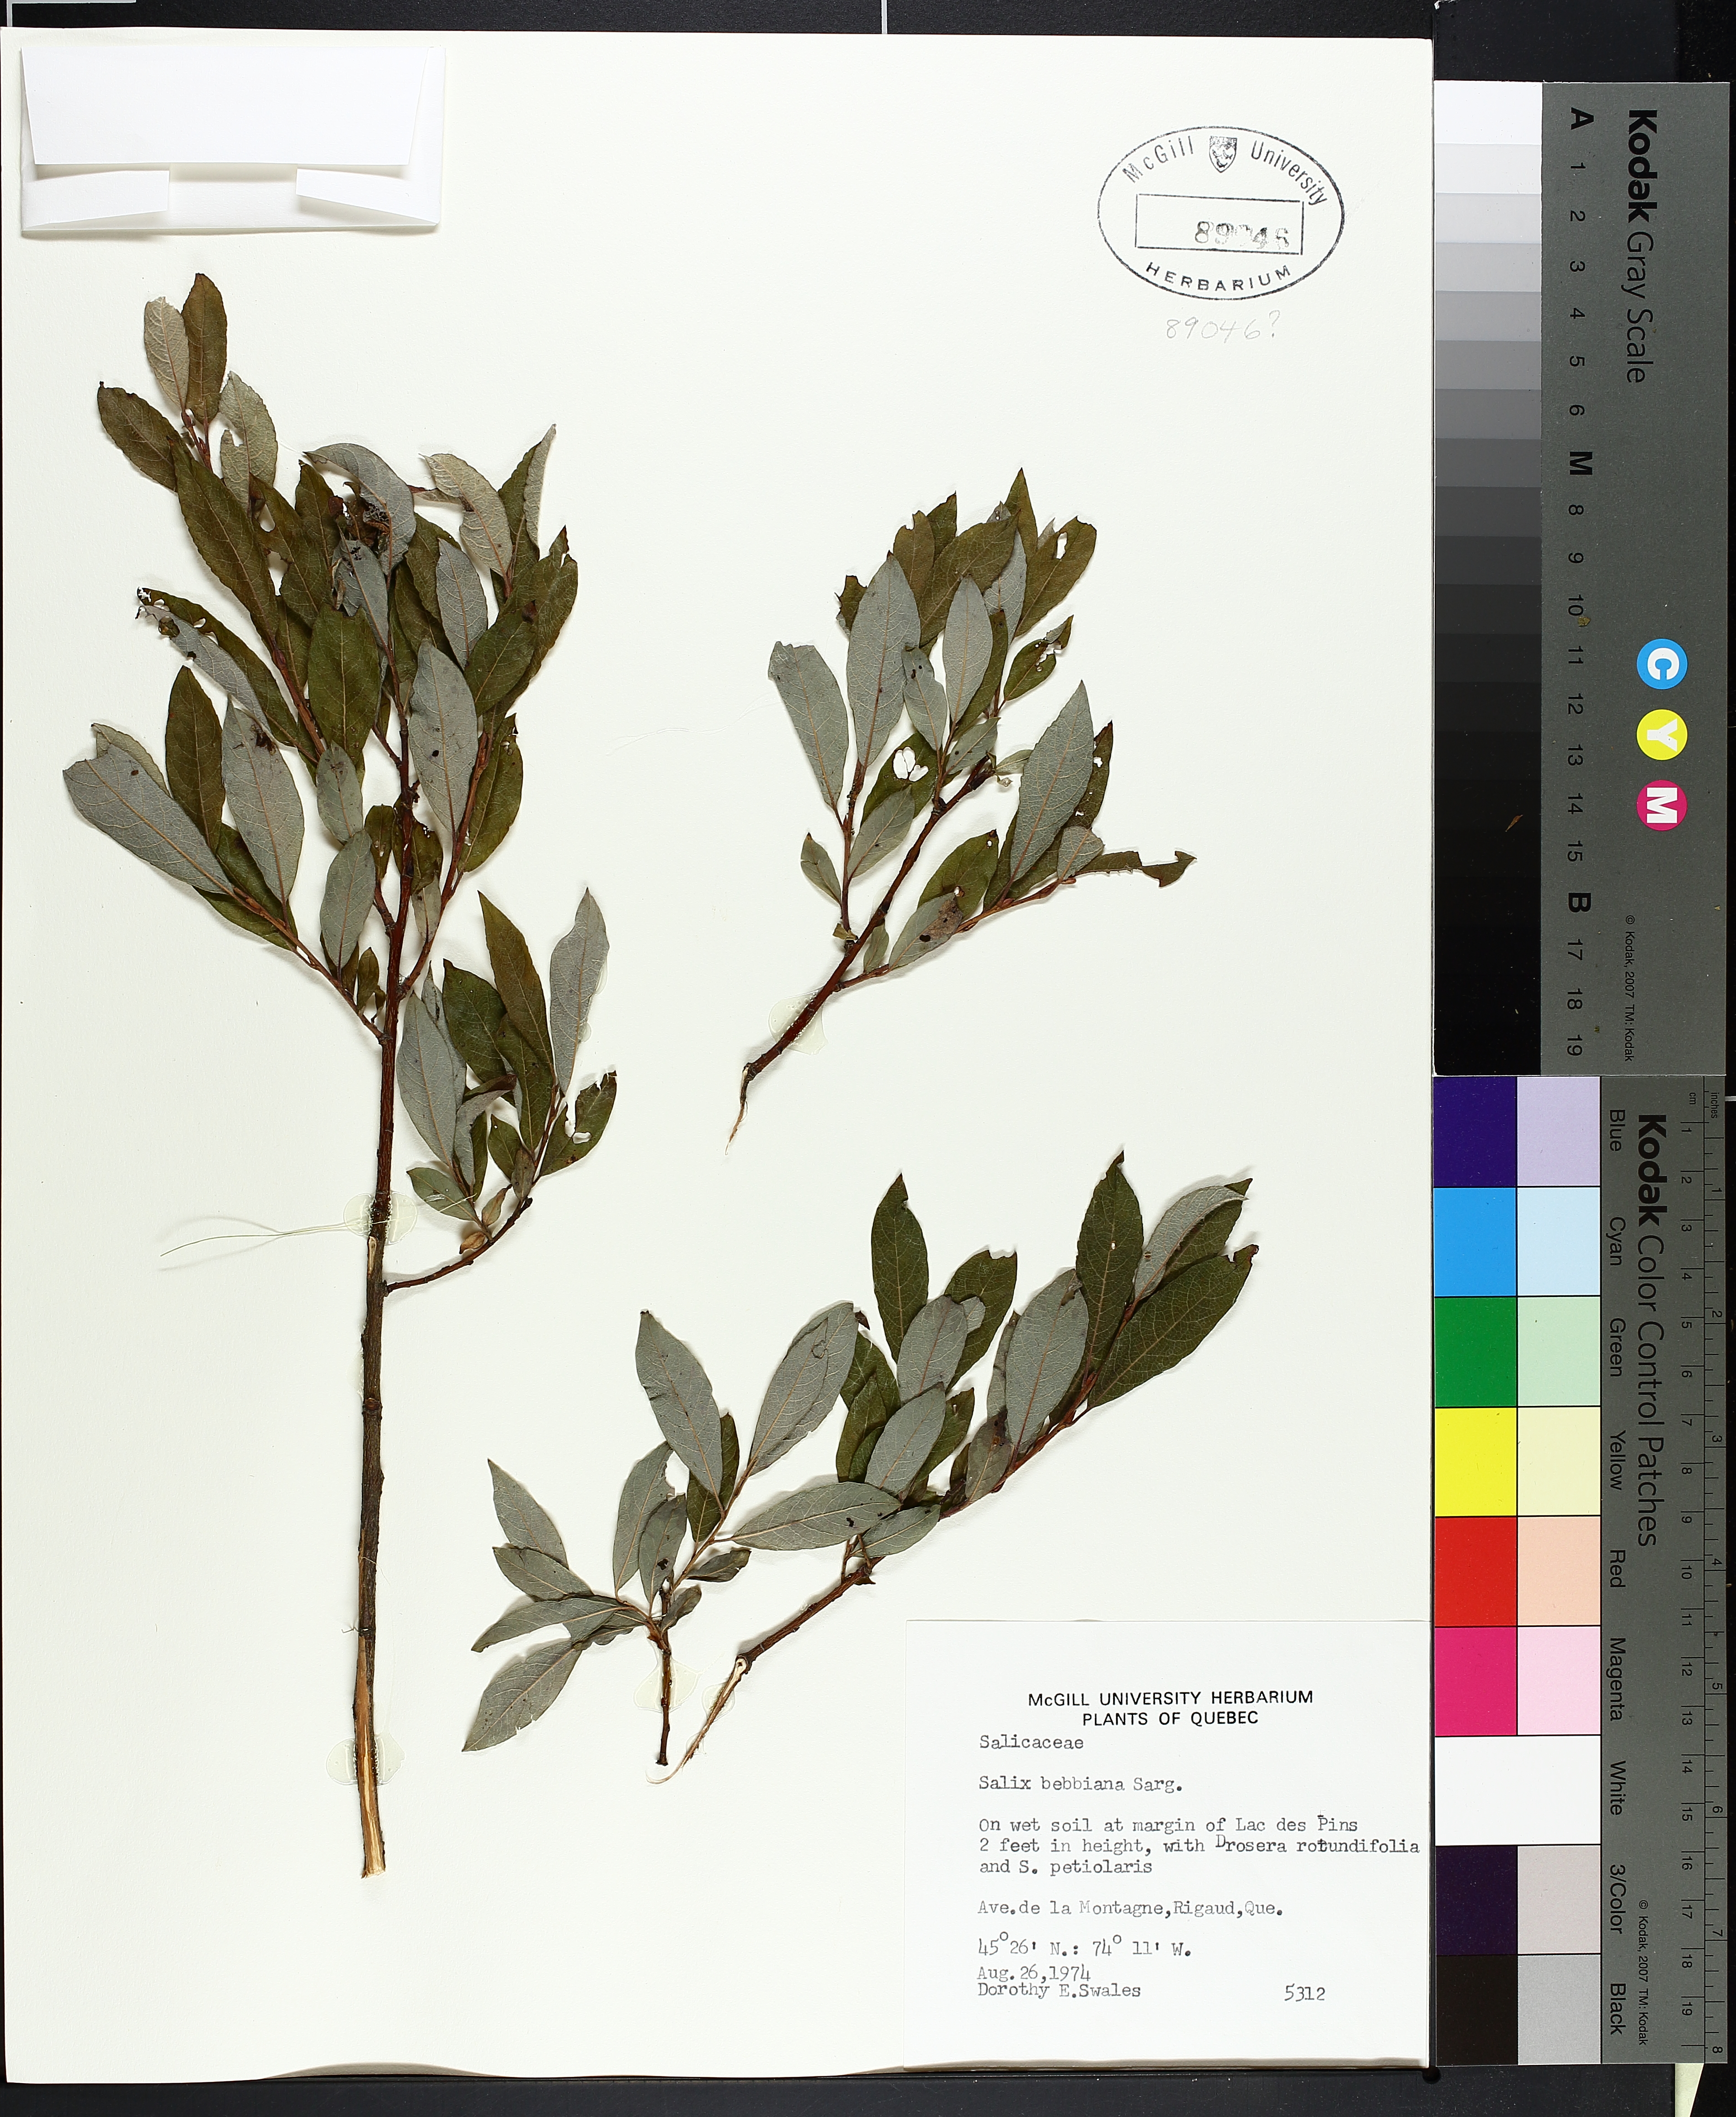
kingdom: Plantae
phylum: Tracheophyta
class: Magnoliopsida
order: Malpighiales
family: Hypericaceae
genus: Hypericum
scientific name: Hypericum perforatum
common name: Common st. johnswort
